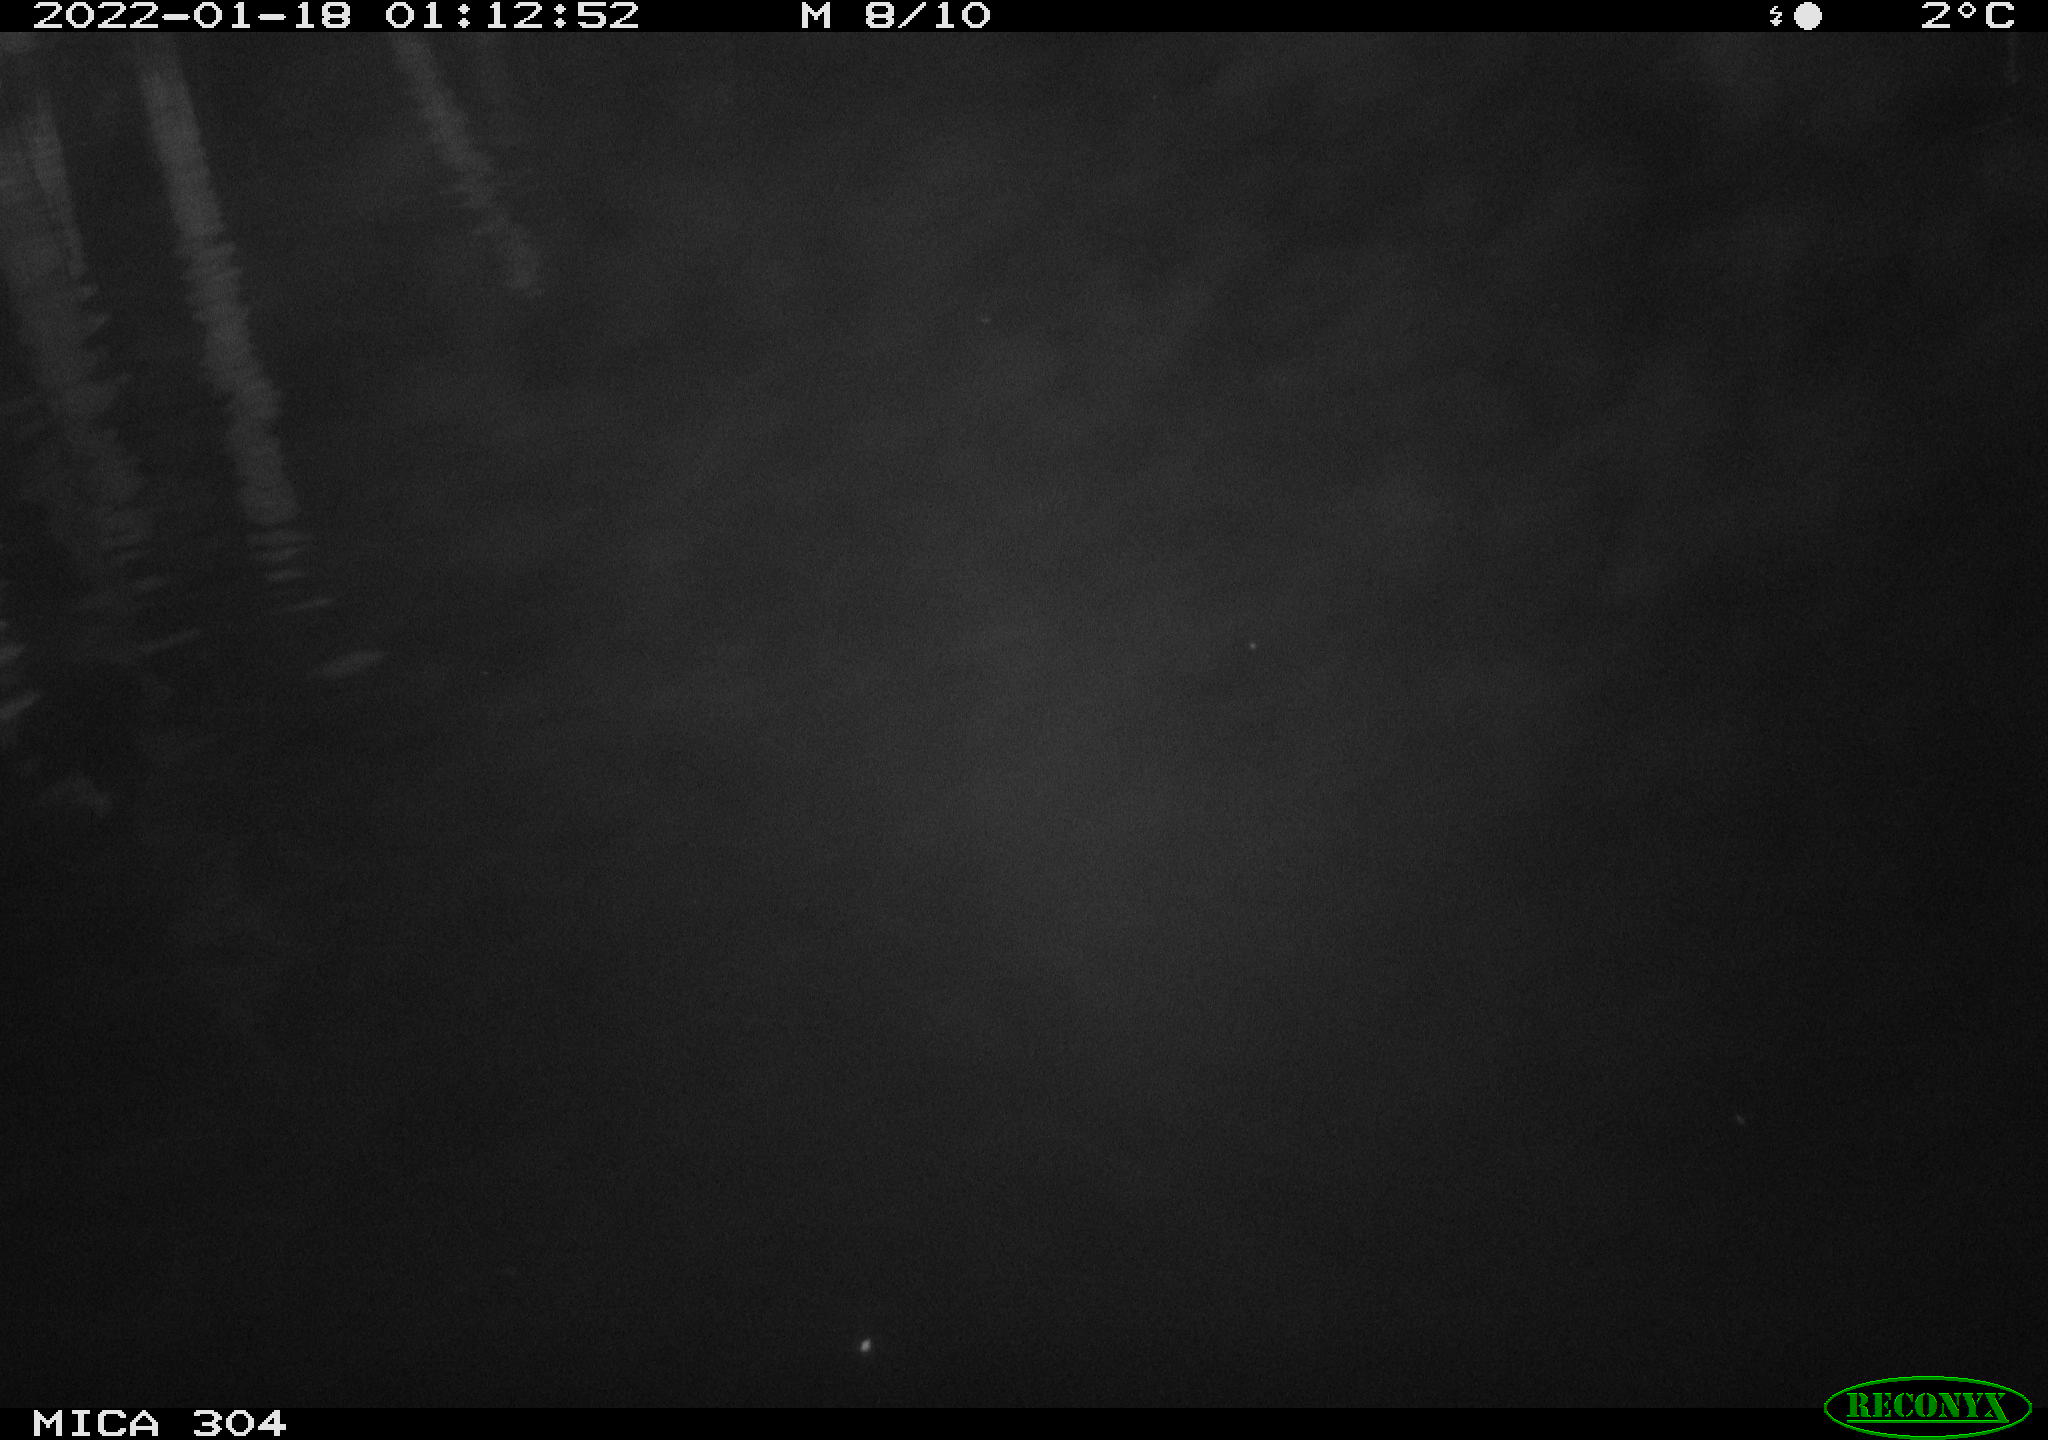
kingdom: Animalia
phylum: Chordata
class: Aves
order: Anseriformes
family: Anatidae
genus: Anas
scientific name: Anas
